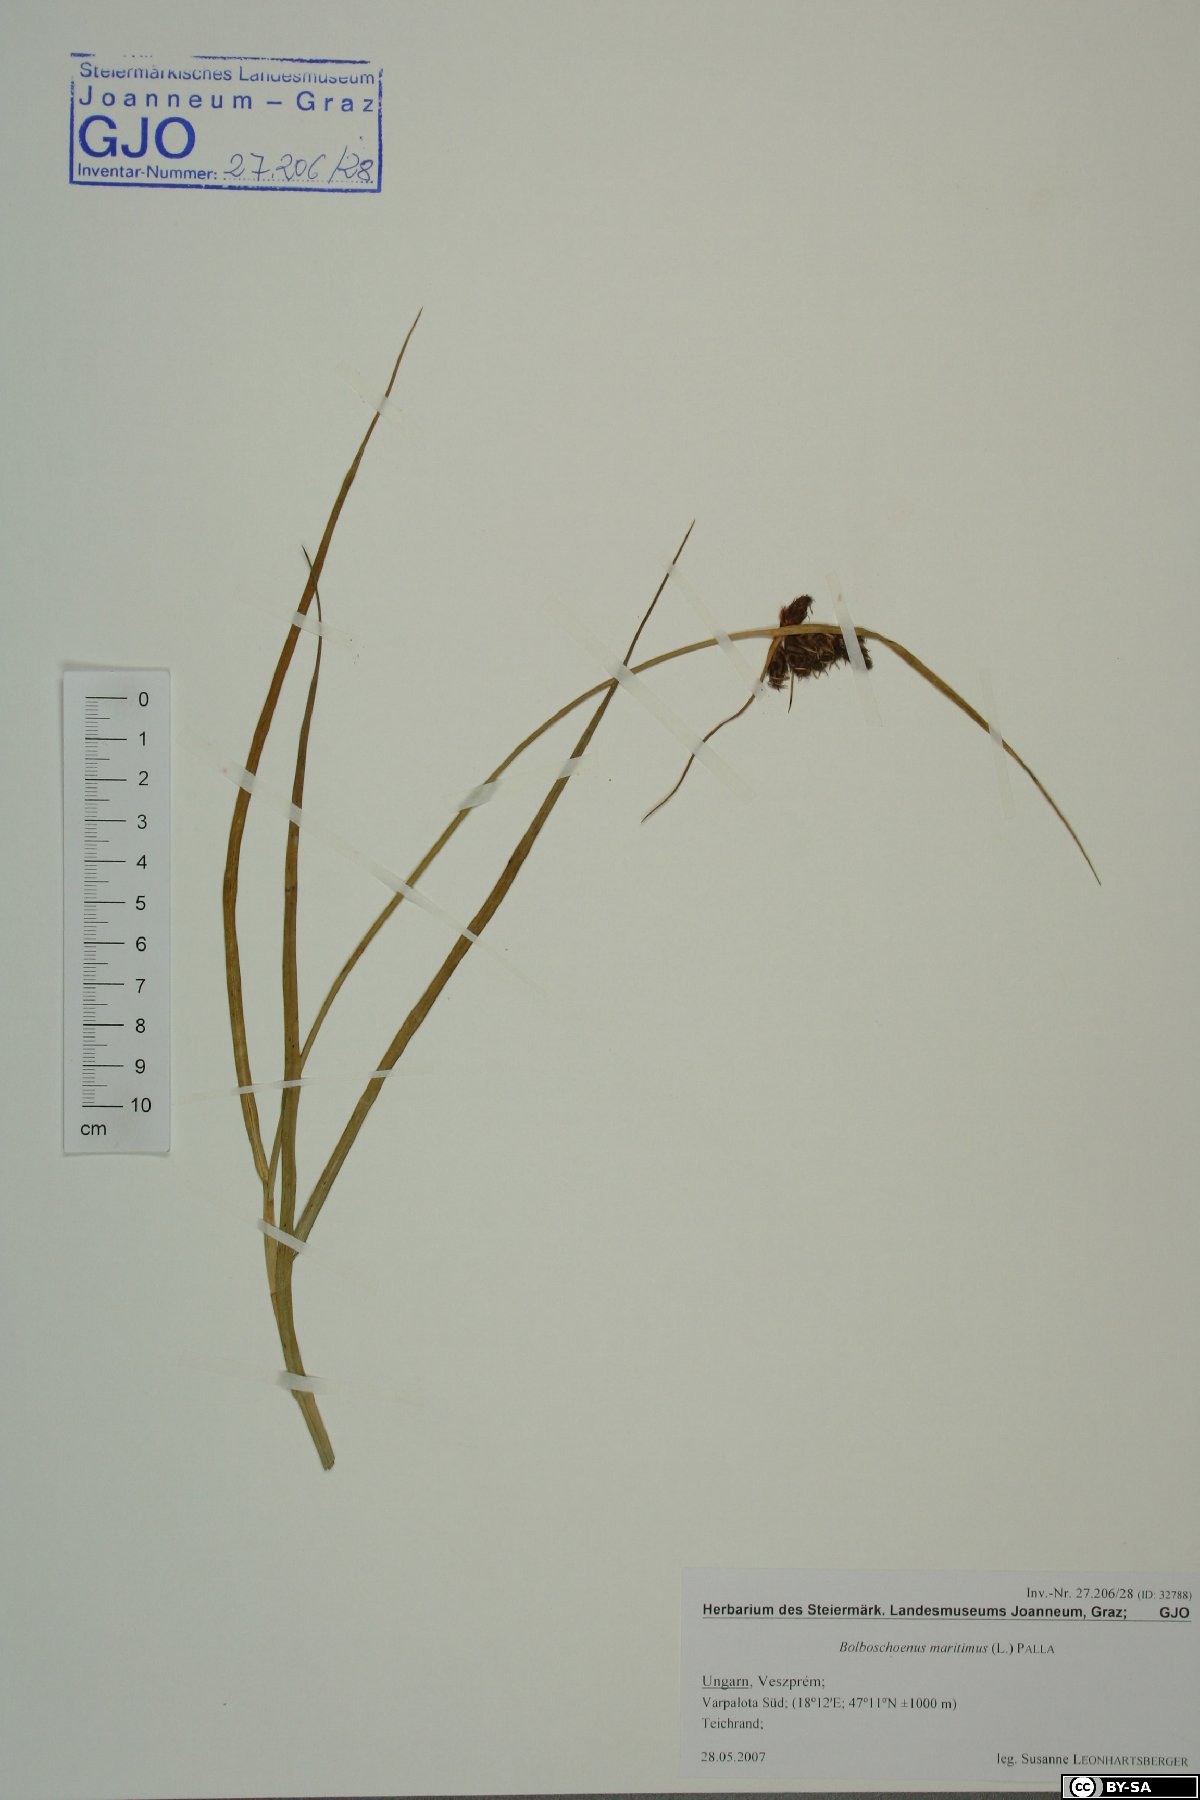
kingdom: Plantae
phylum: Tracheophyta
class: Liliopsida
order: Poales
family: Cyperaceae
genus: Bolboschoenus
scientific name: Bolboschoenus maritimus
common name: Sea club-rush
